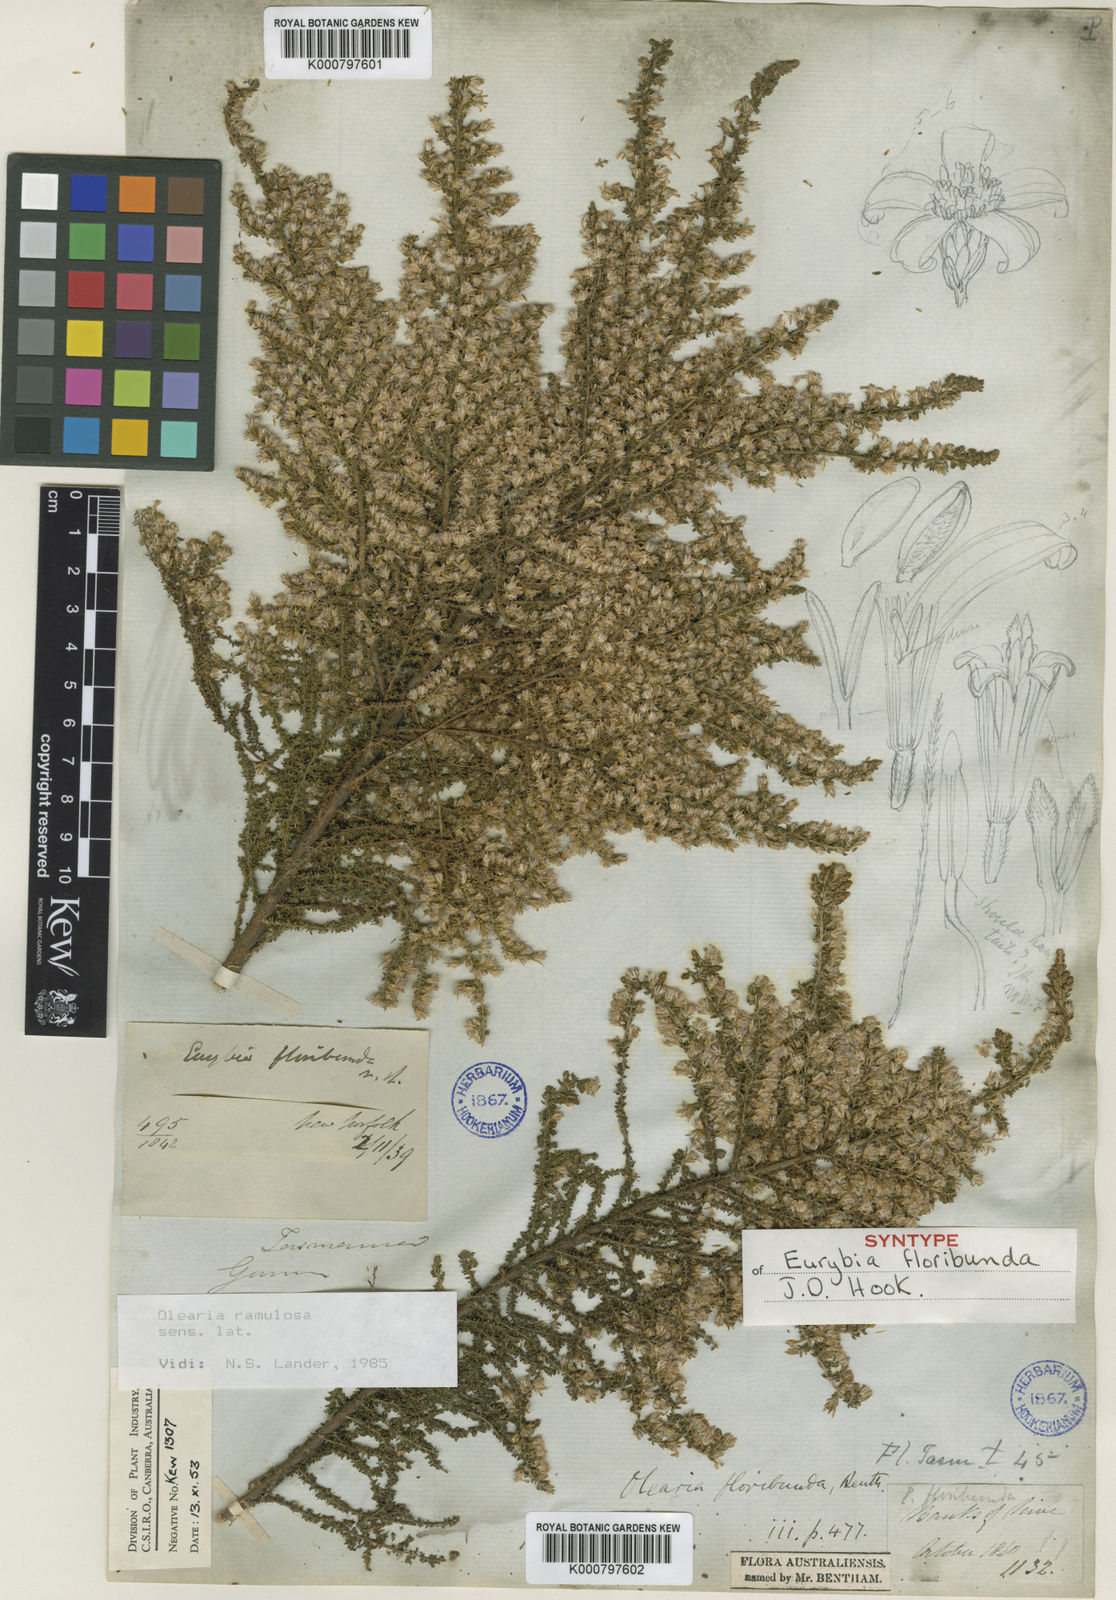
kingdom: Plantae
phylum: Tracheophyta
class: Magnoliopsida
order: Asterales
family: Asteraceae
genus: Olearia
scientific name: Olearia floribunda
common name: Heath daisybush
